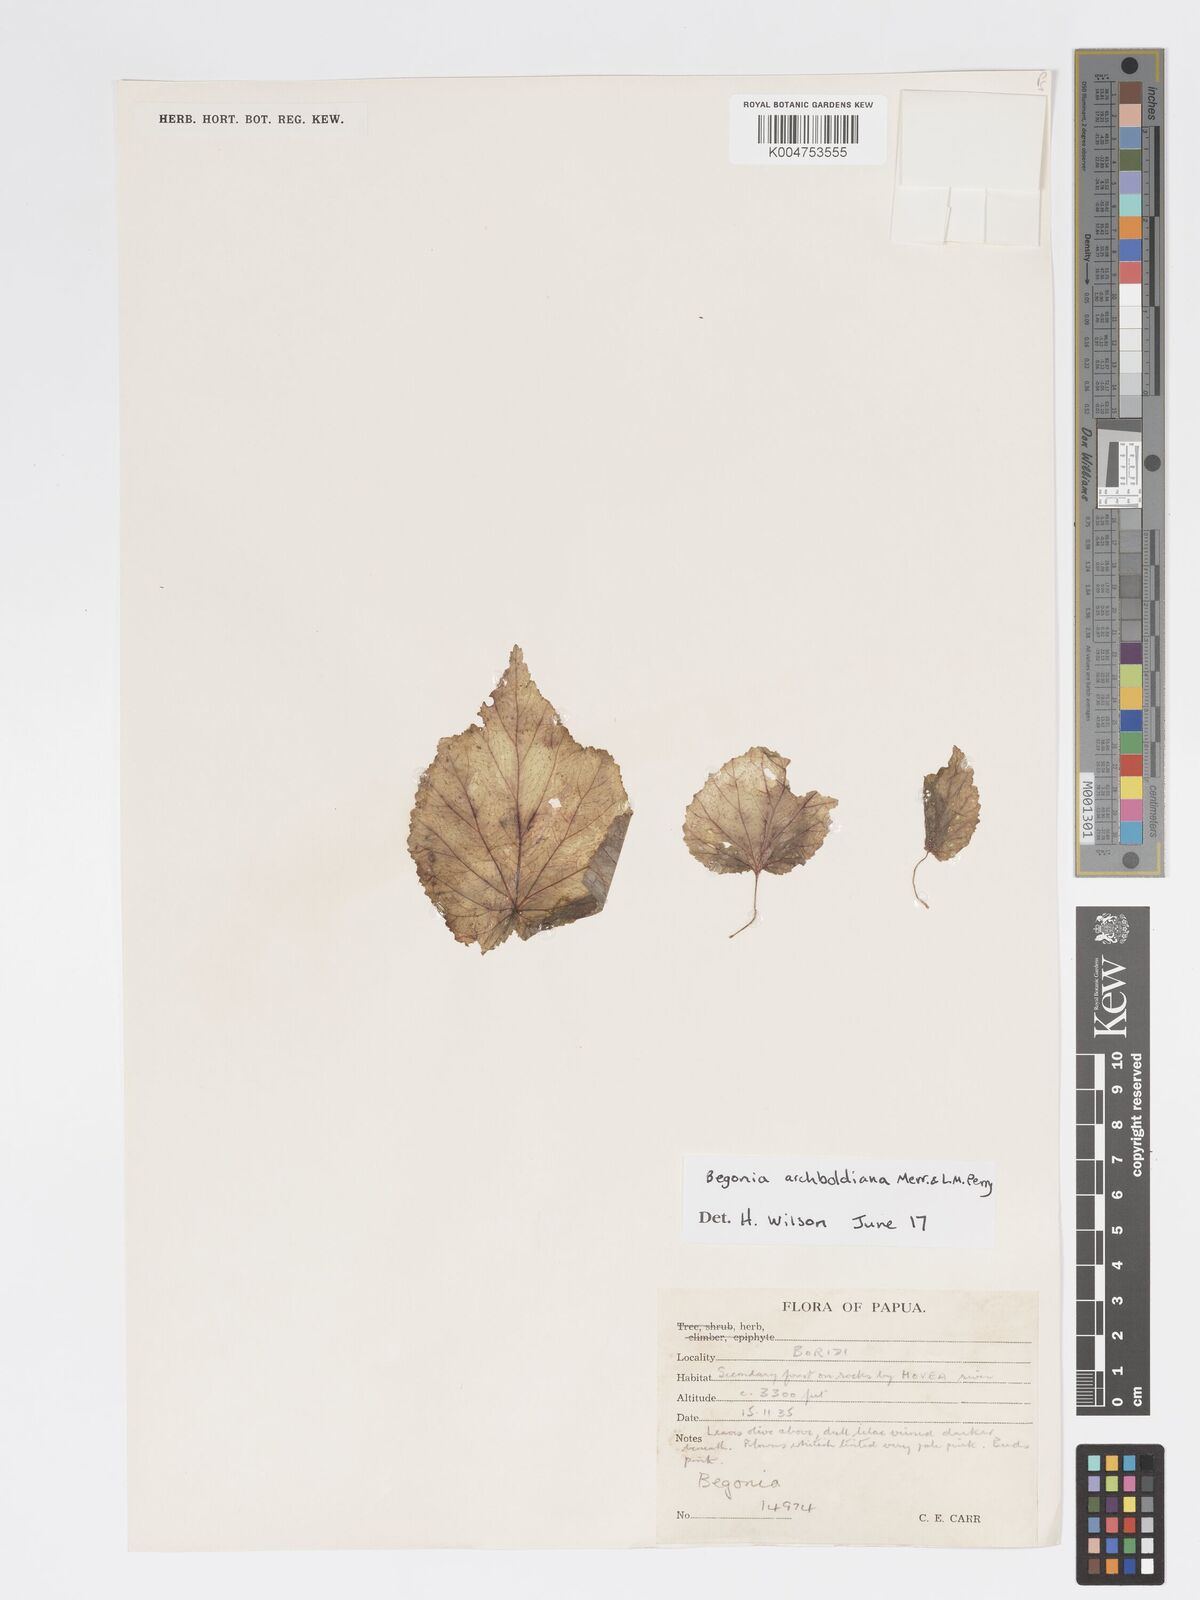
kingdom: Plantae
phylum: Tracheophyta
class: Magnoliopsida
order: Cucurbitales
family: Begoniaceae
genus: Begonia
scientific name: Begonia archboldiana
